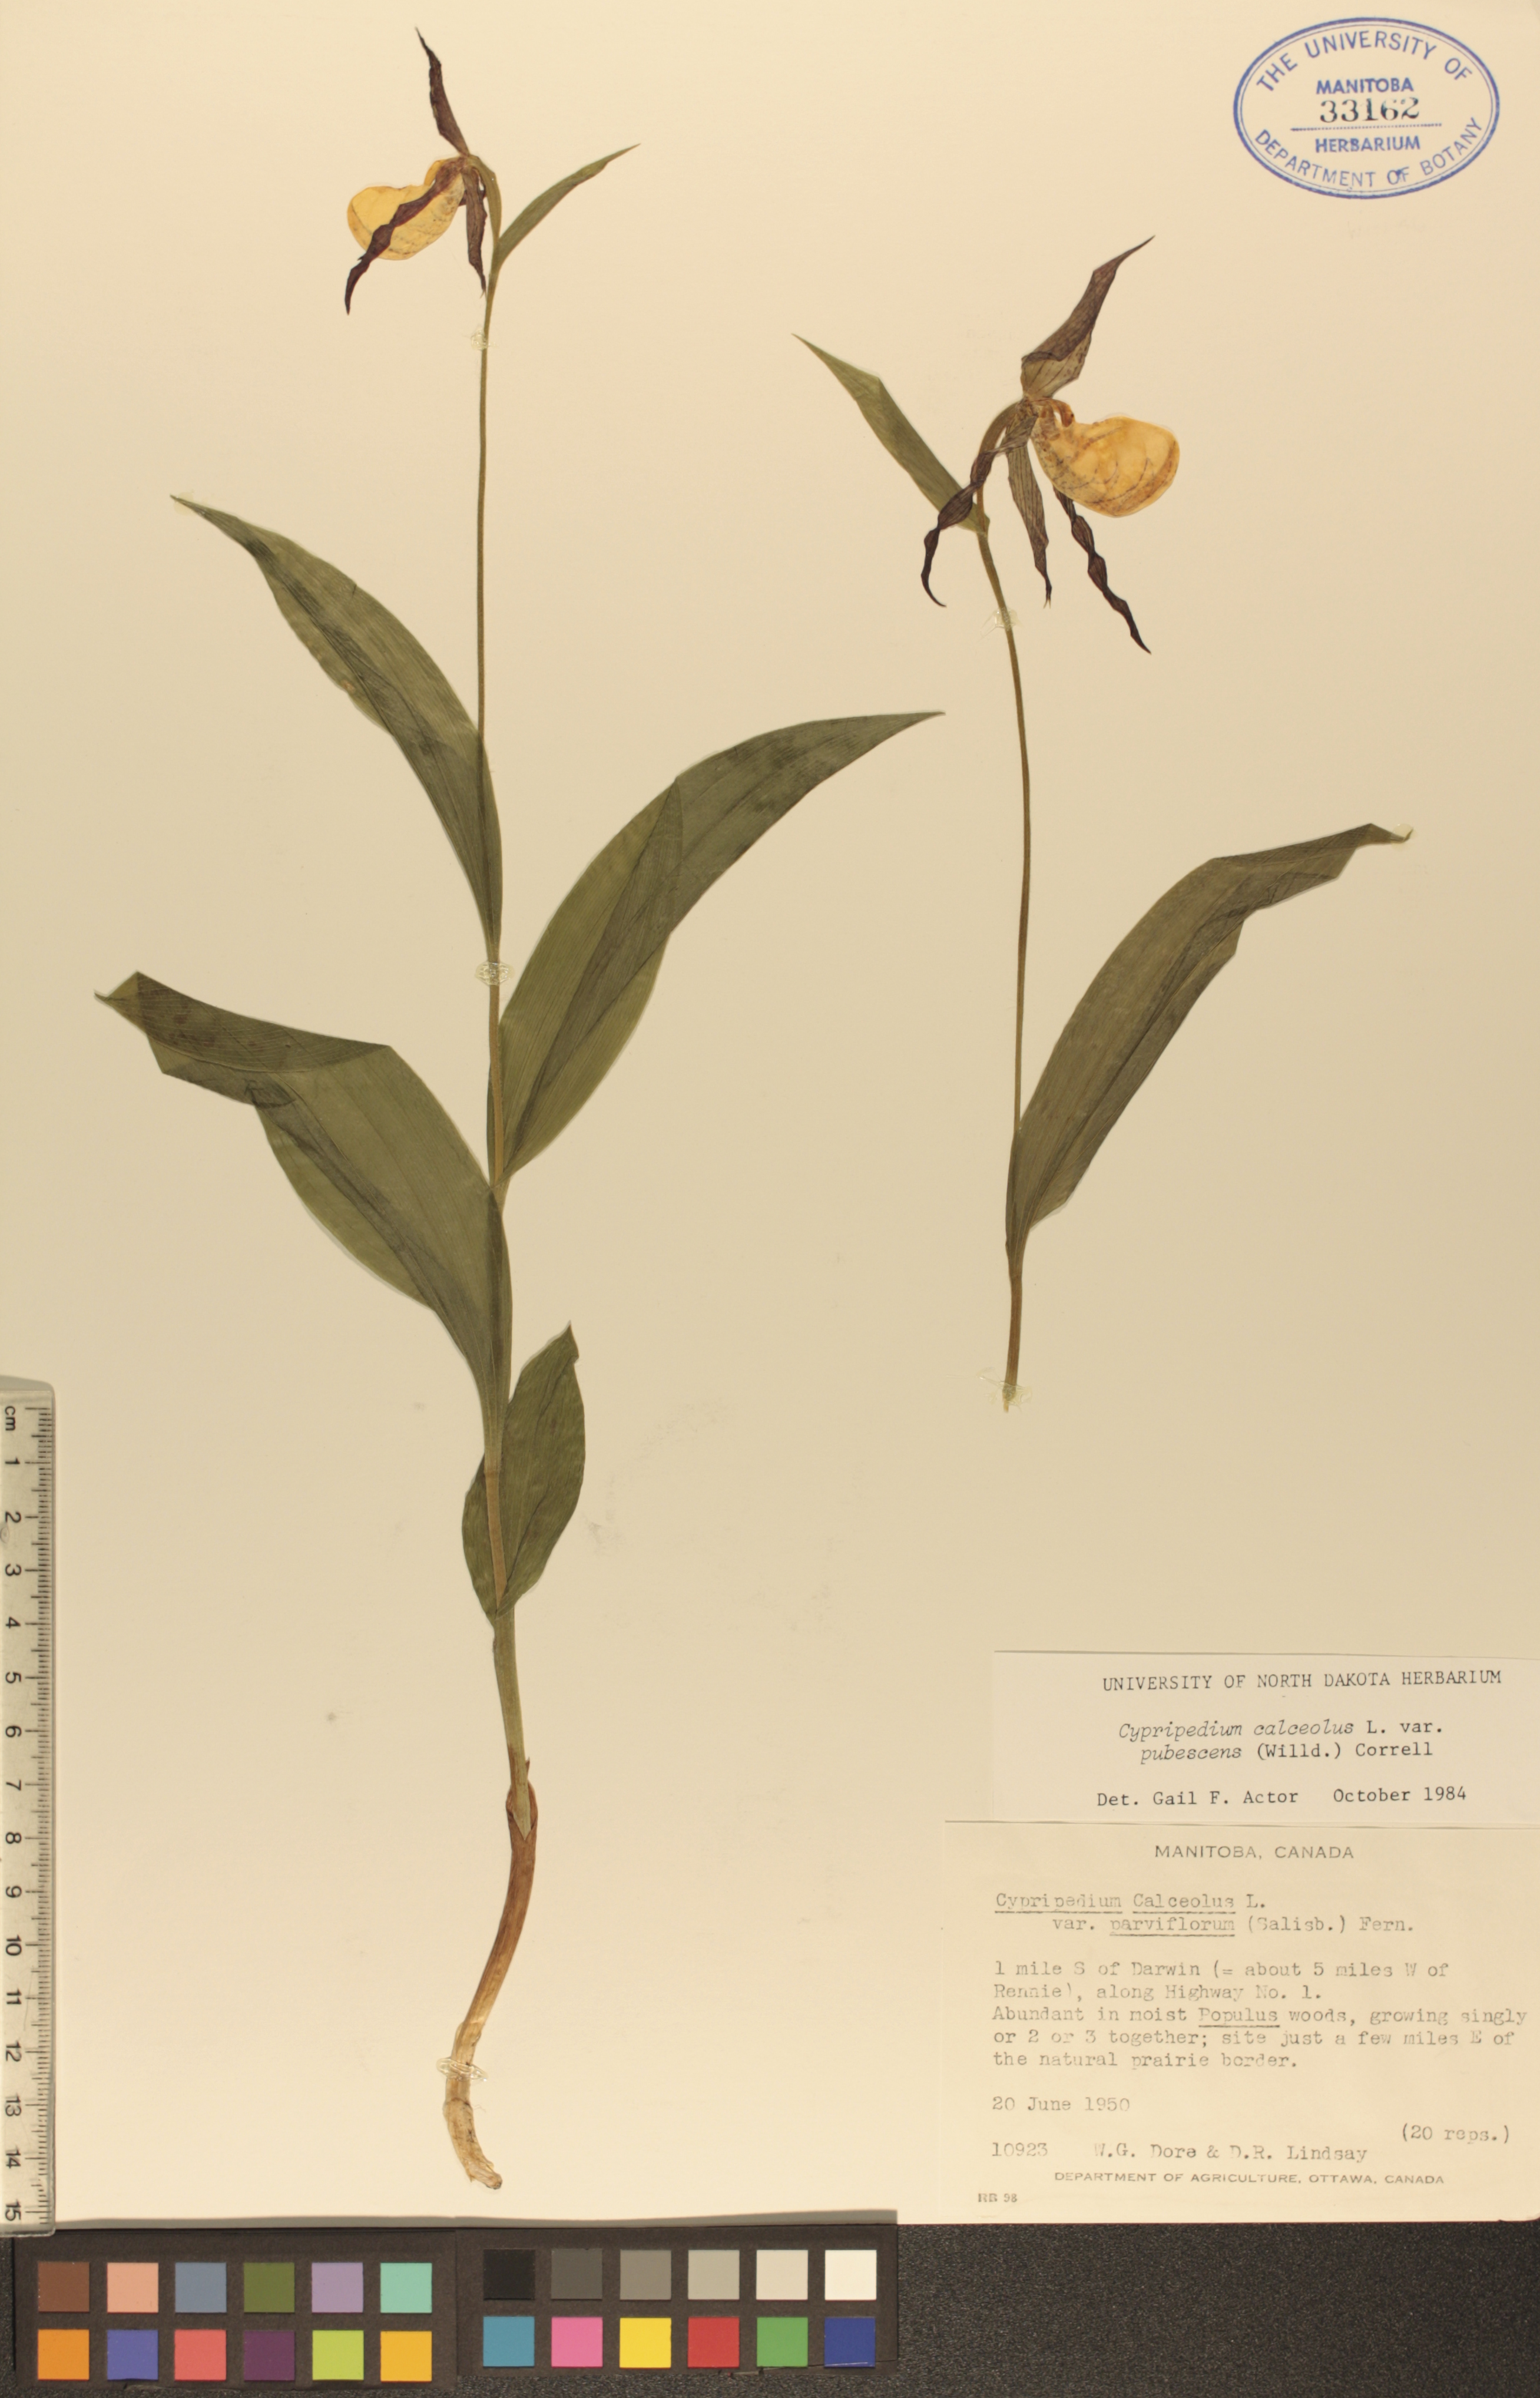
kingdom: Plantae
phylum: Tracheophyta
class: Liliopsida
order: Asparagales
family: Orchidaceae
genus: Cypripedium
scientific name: Cypripedium parviflorum
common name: American yellow lady's-slipper
